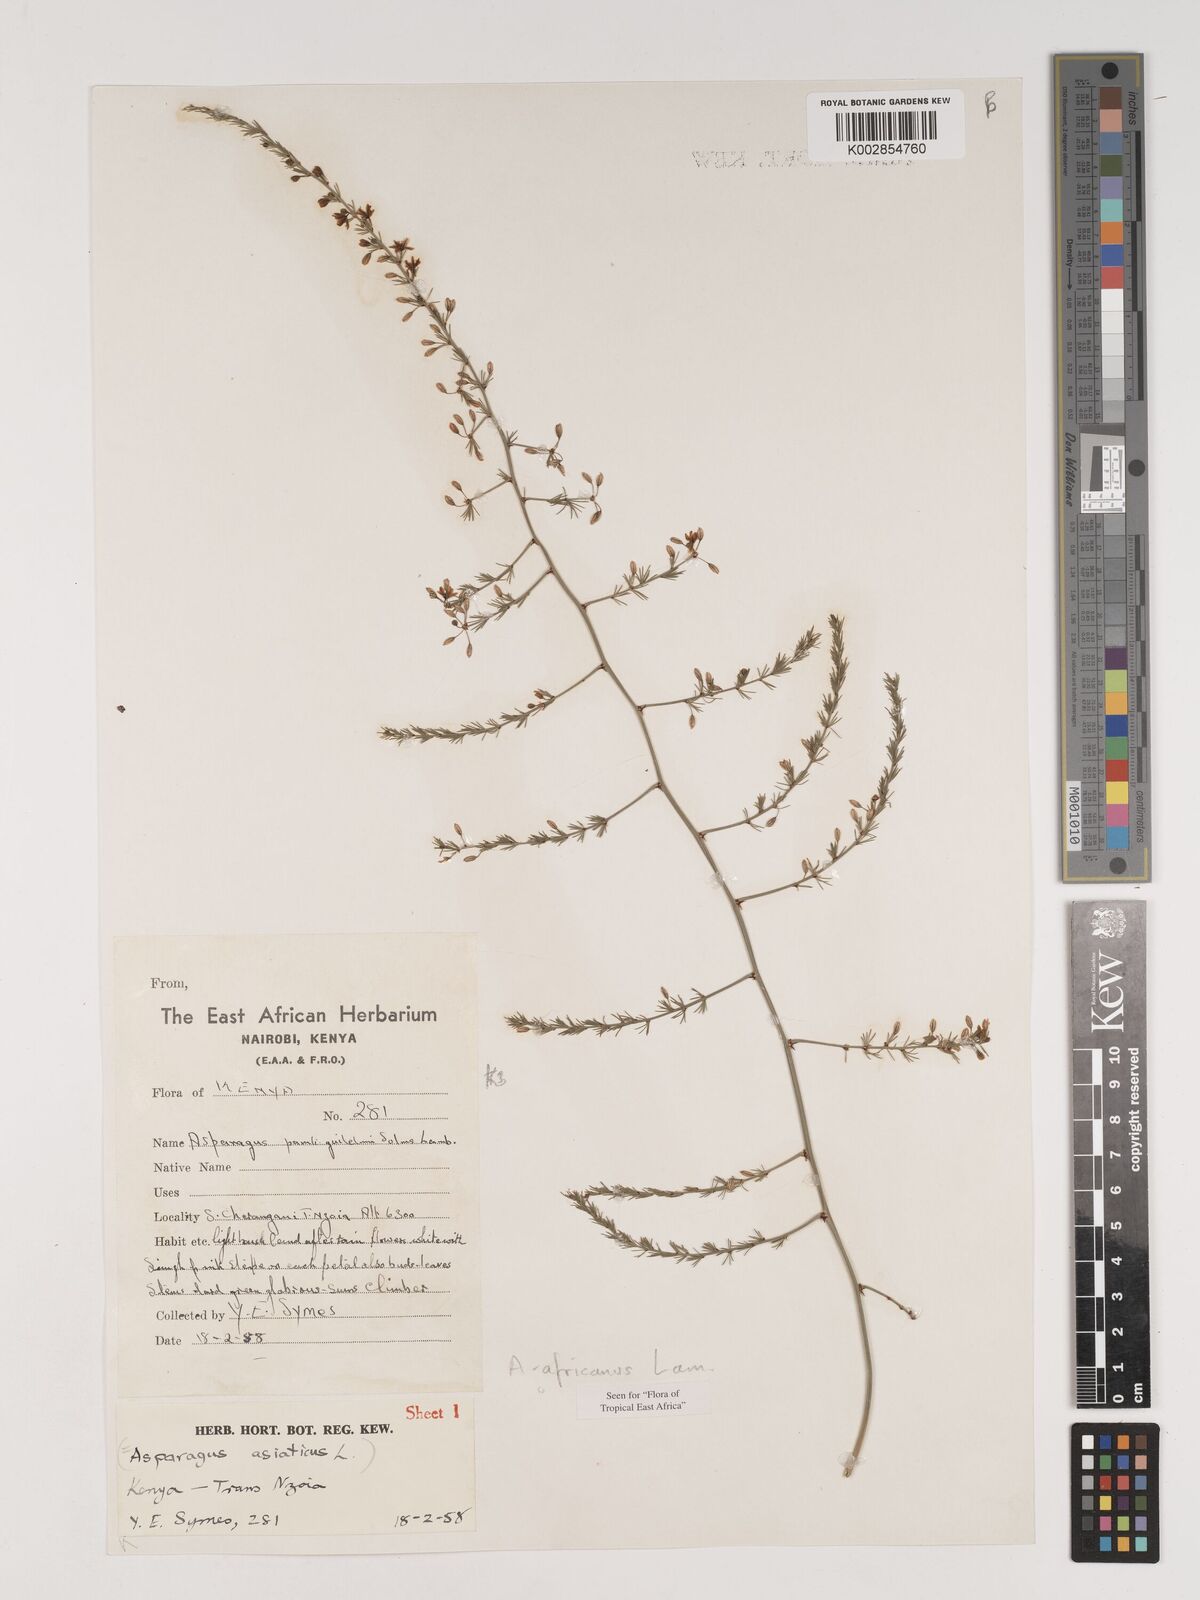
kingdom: Plantae
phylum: Tracheophyta
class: Liliopsida
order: Asparagales
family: Asparagaceae
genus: Asparagus
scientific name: Asparagus africanus
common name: Asparagus-fern
